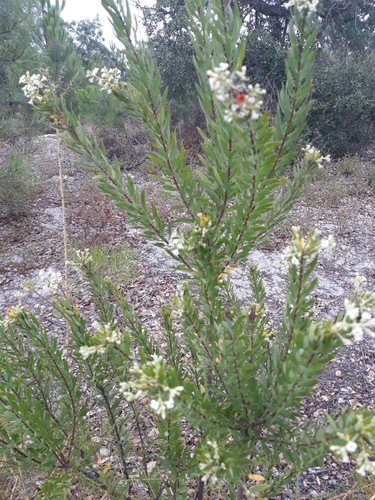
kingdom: Plantae
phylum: Tracheophyta
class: Magnoliopsida
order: Malvales
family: Thymelaeaceae
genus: Daphne
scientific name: Daphne gnidium
